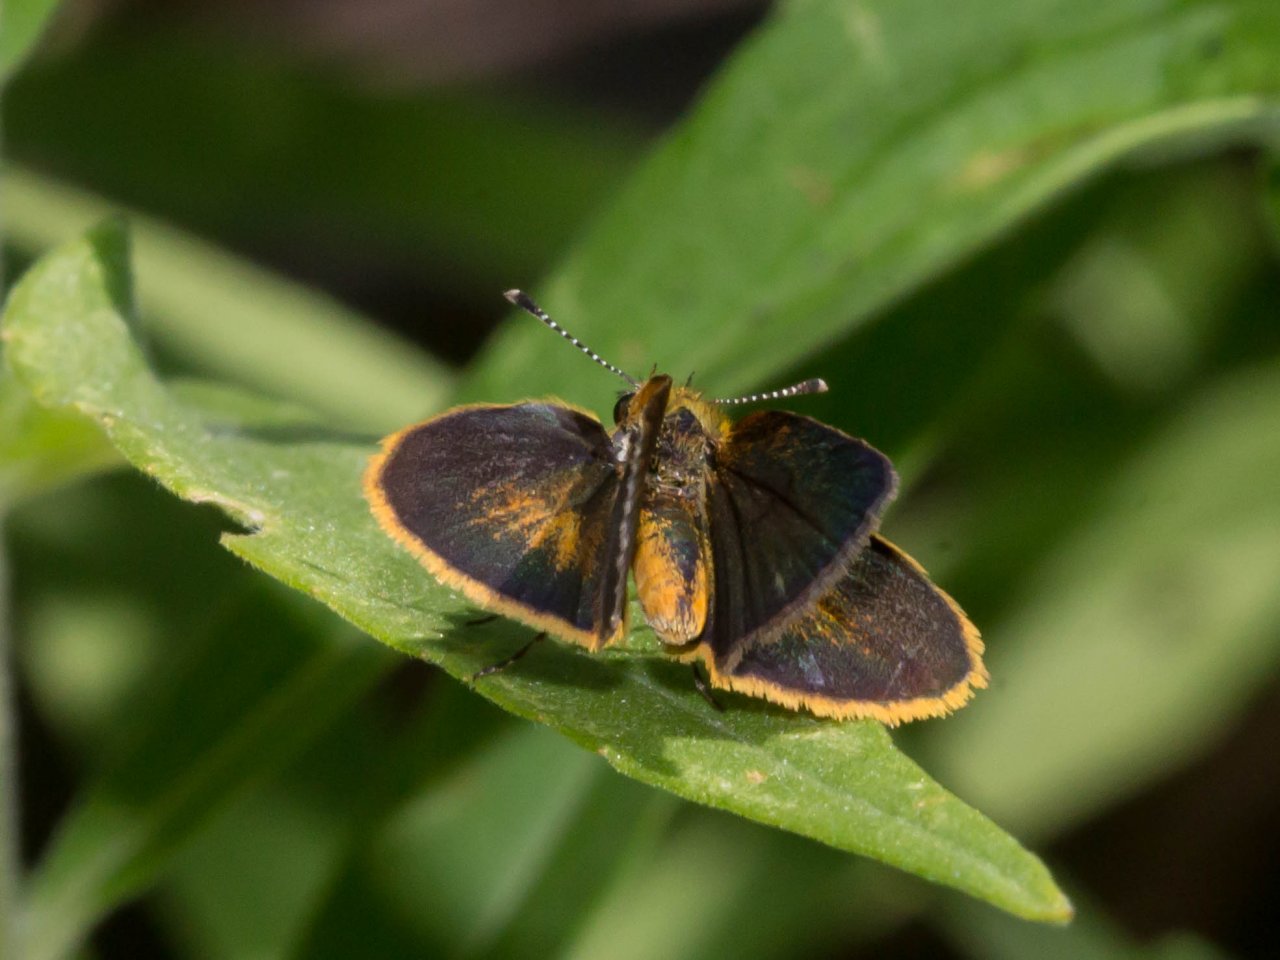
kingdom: Animalia
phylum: Arthropoda
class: Insecta
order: Lepidoptera
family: Hesperiidae
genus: Ancyloxypha
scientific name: Ancyloxypha numitor
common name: Least Skipper
